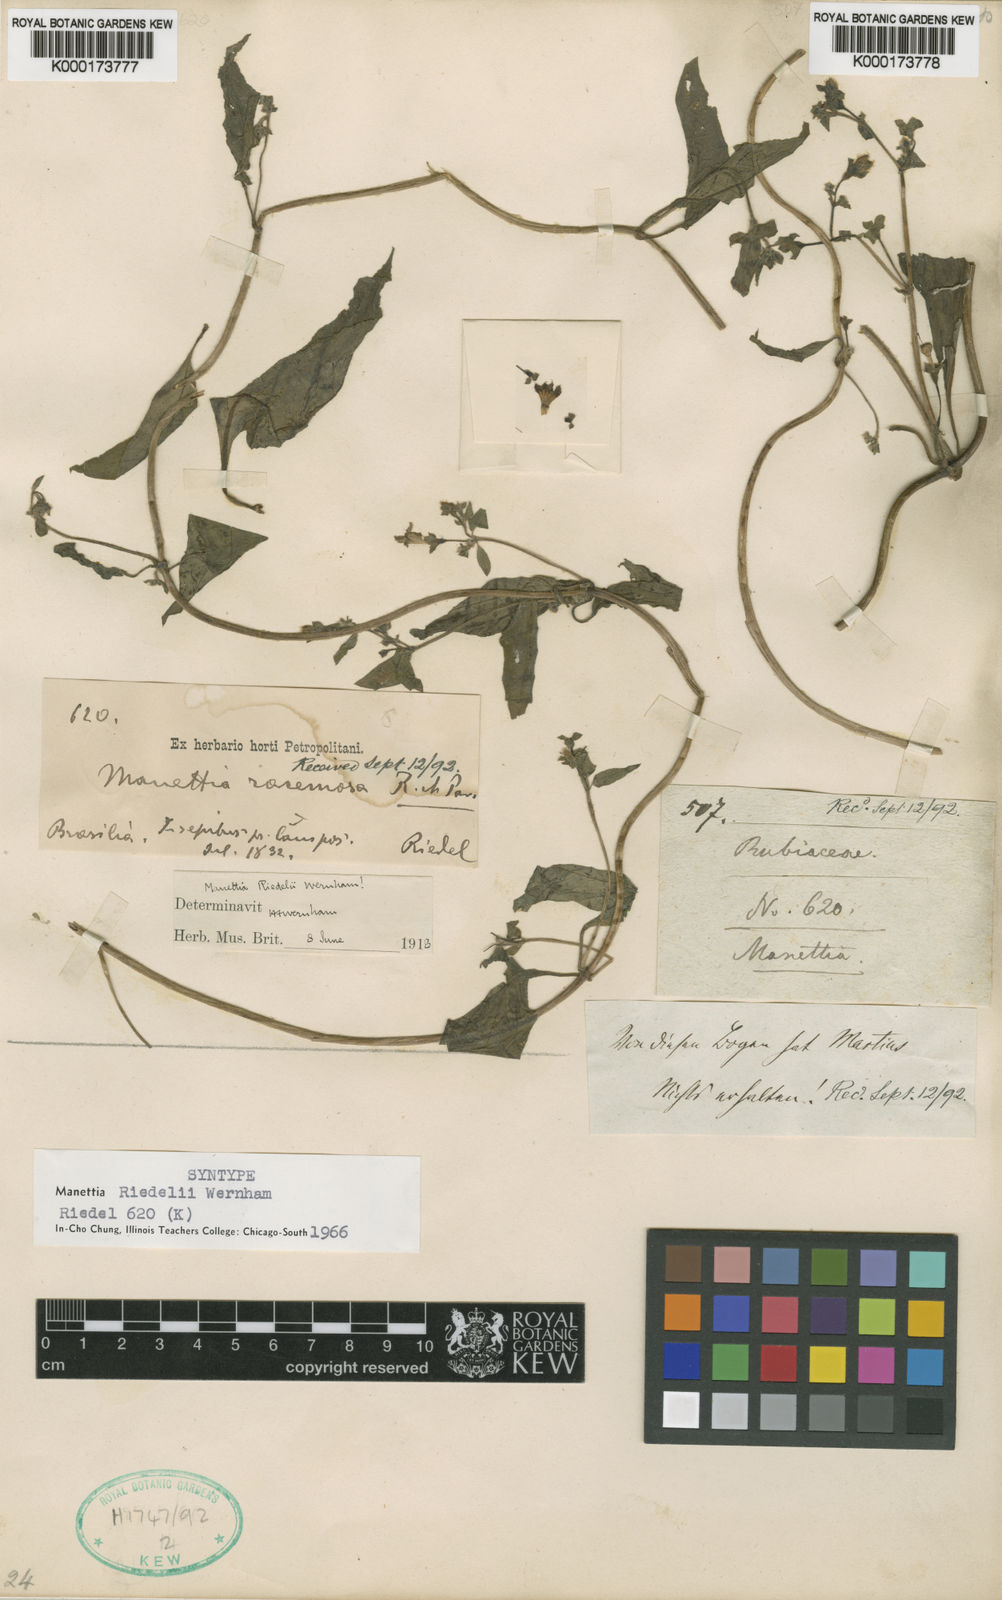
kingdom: Plantae
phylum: Tracheophyta
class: Magnoliopsida
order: Gentianales
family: Rubiaceae
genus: Manettia
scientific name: Manettia riedelii
